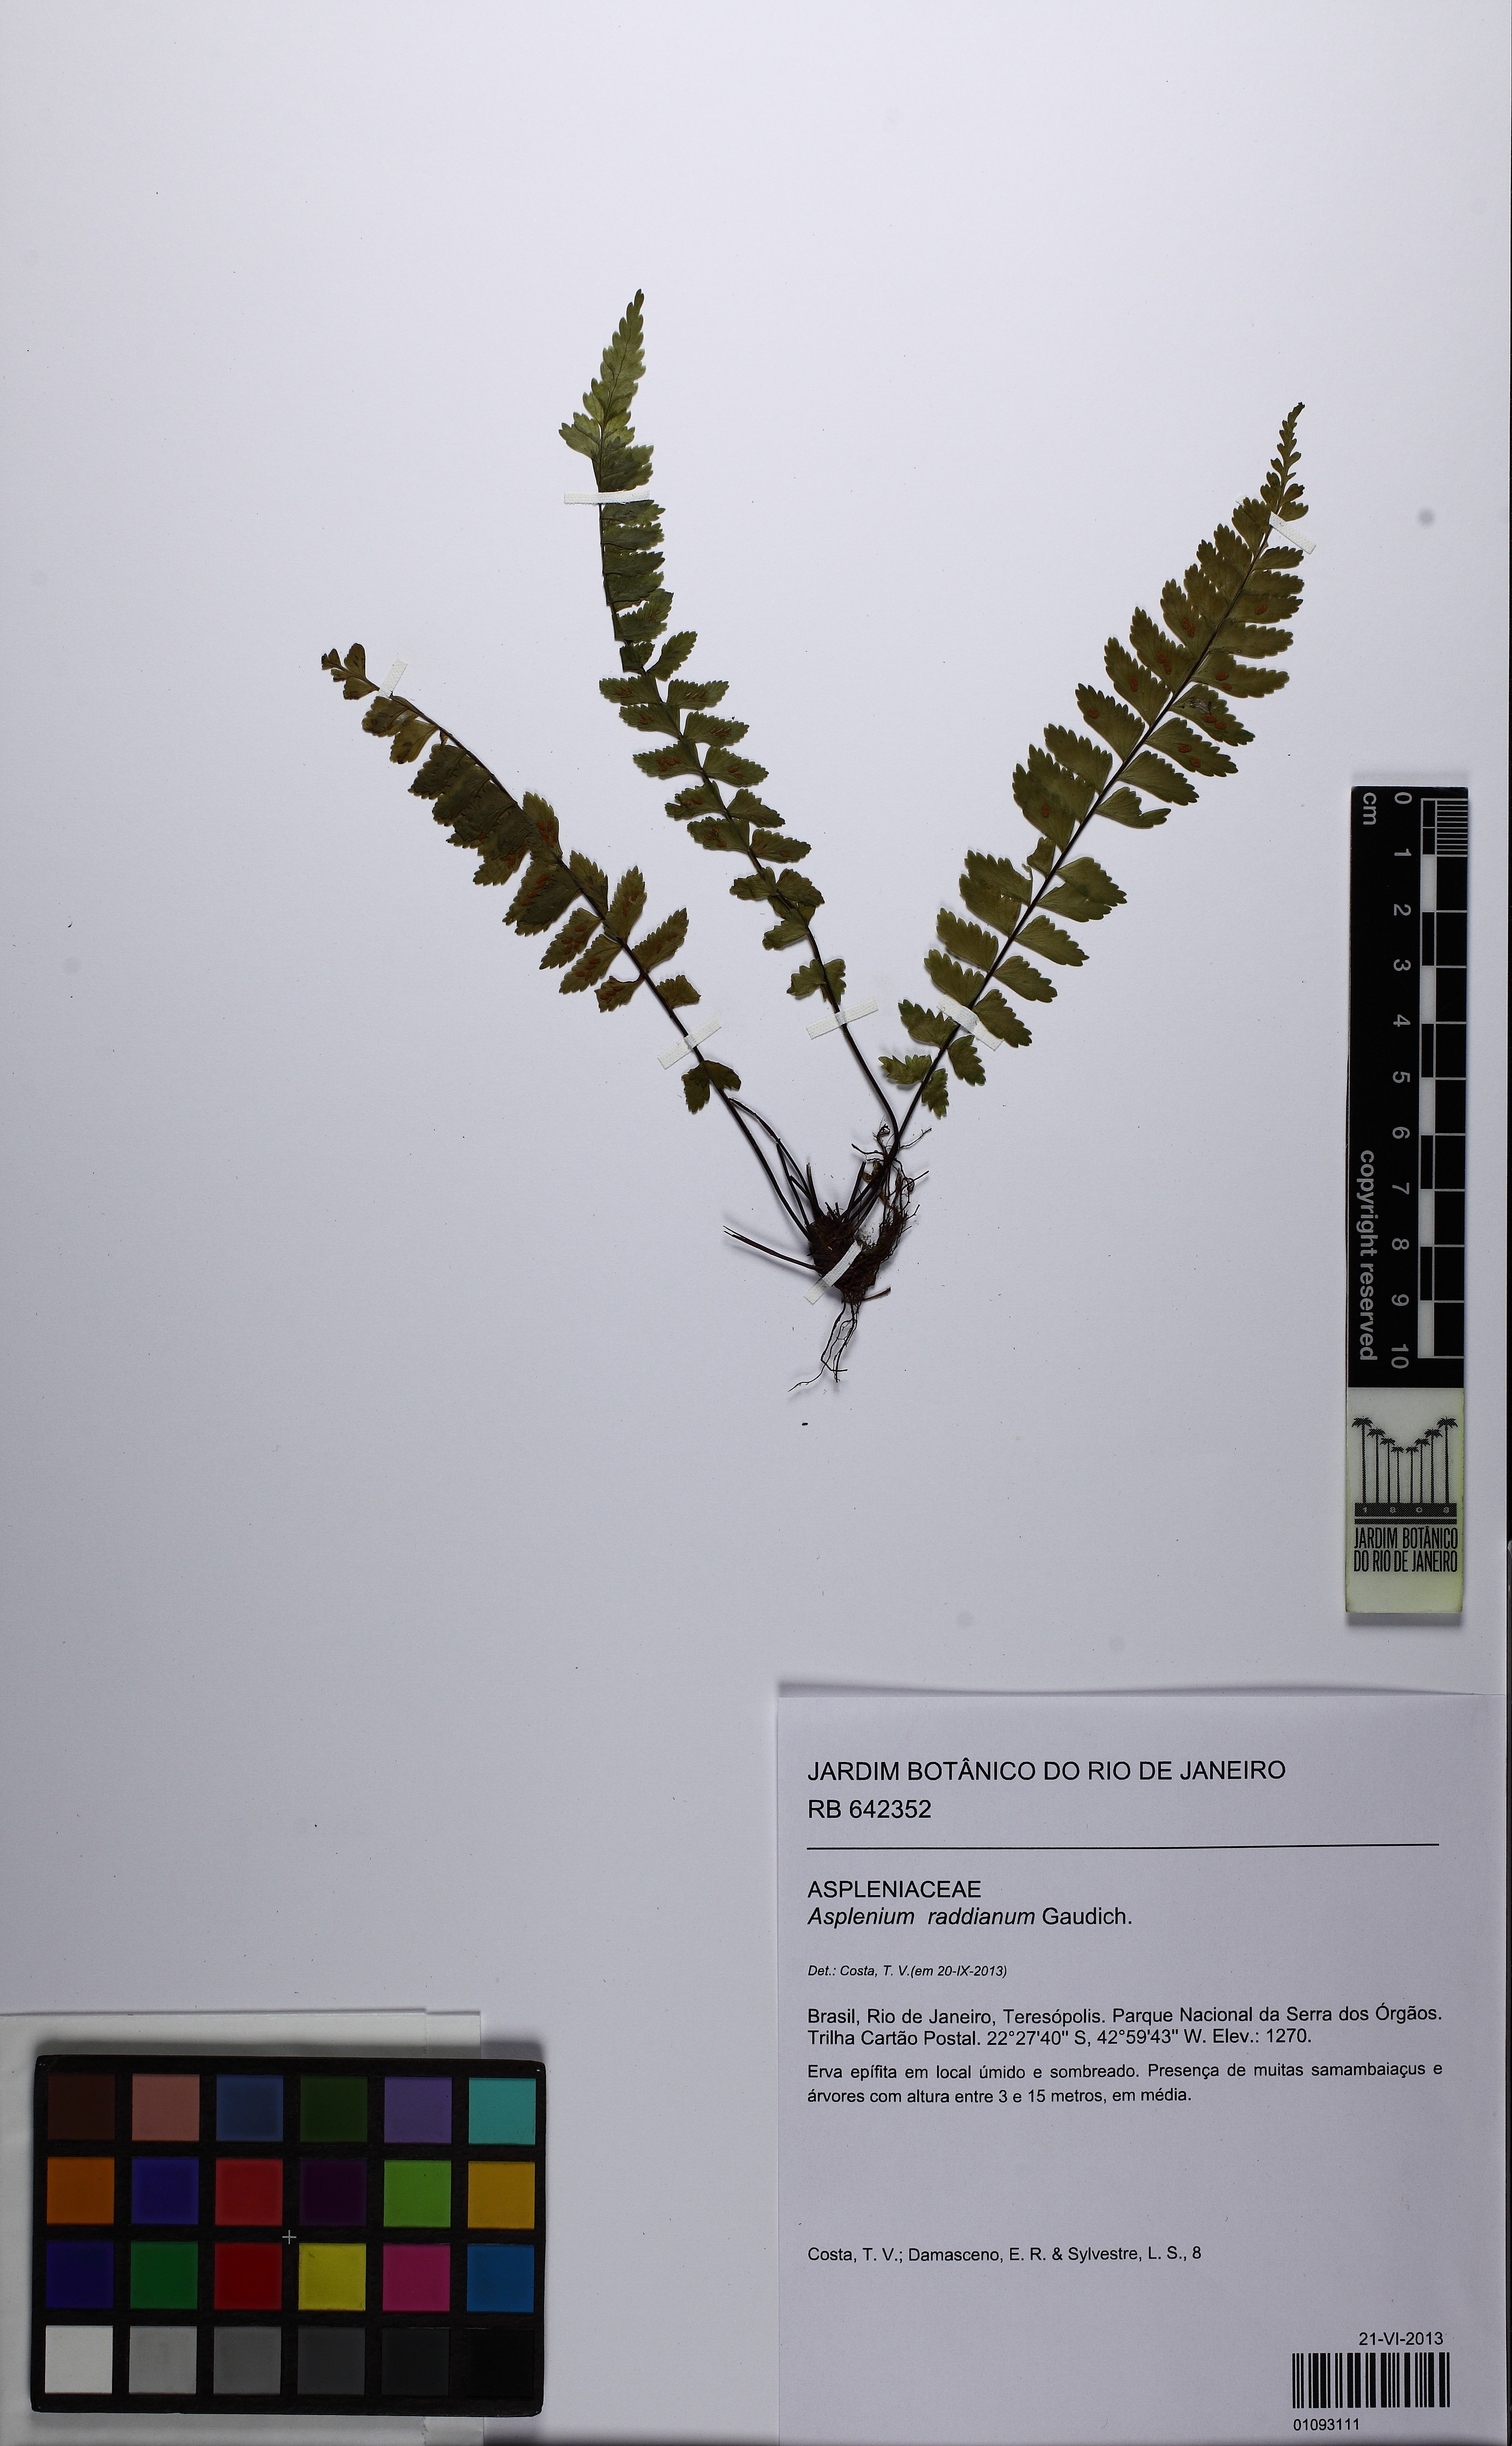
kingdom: Plantae
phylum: Tracheophyta
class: Polypodiopsida
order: Polypodiales
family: Aspleniaceae
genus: Asplenium
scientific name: Asplenium raddianum
